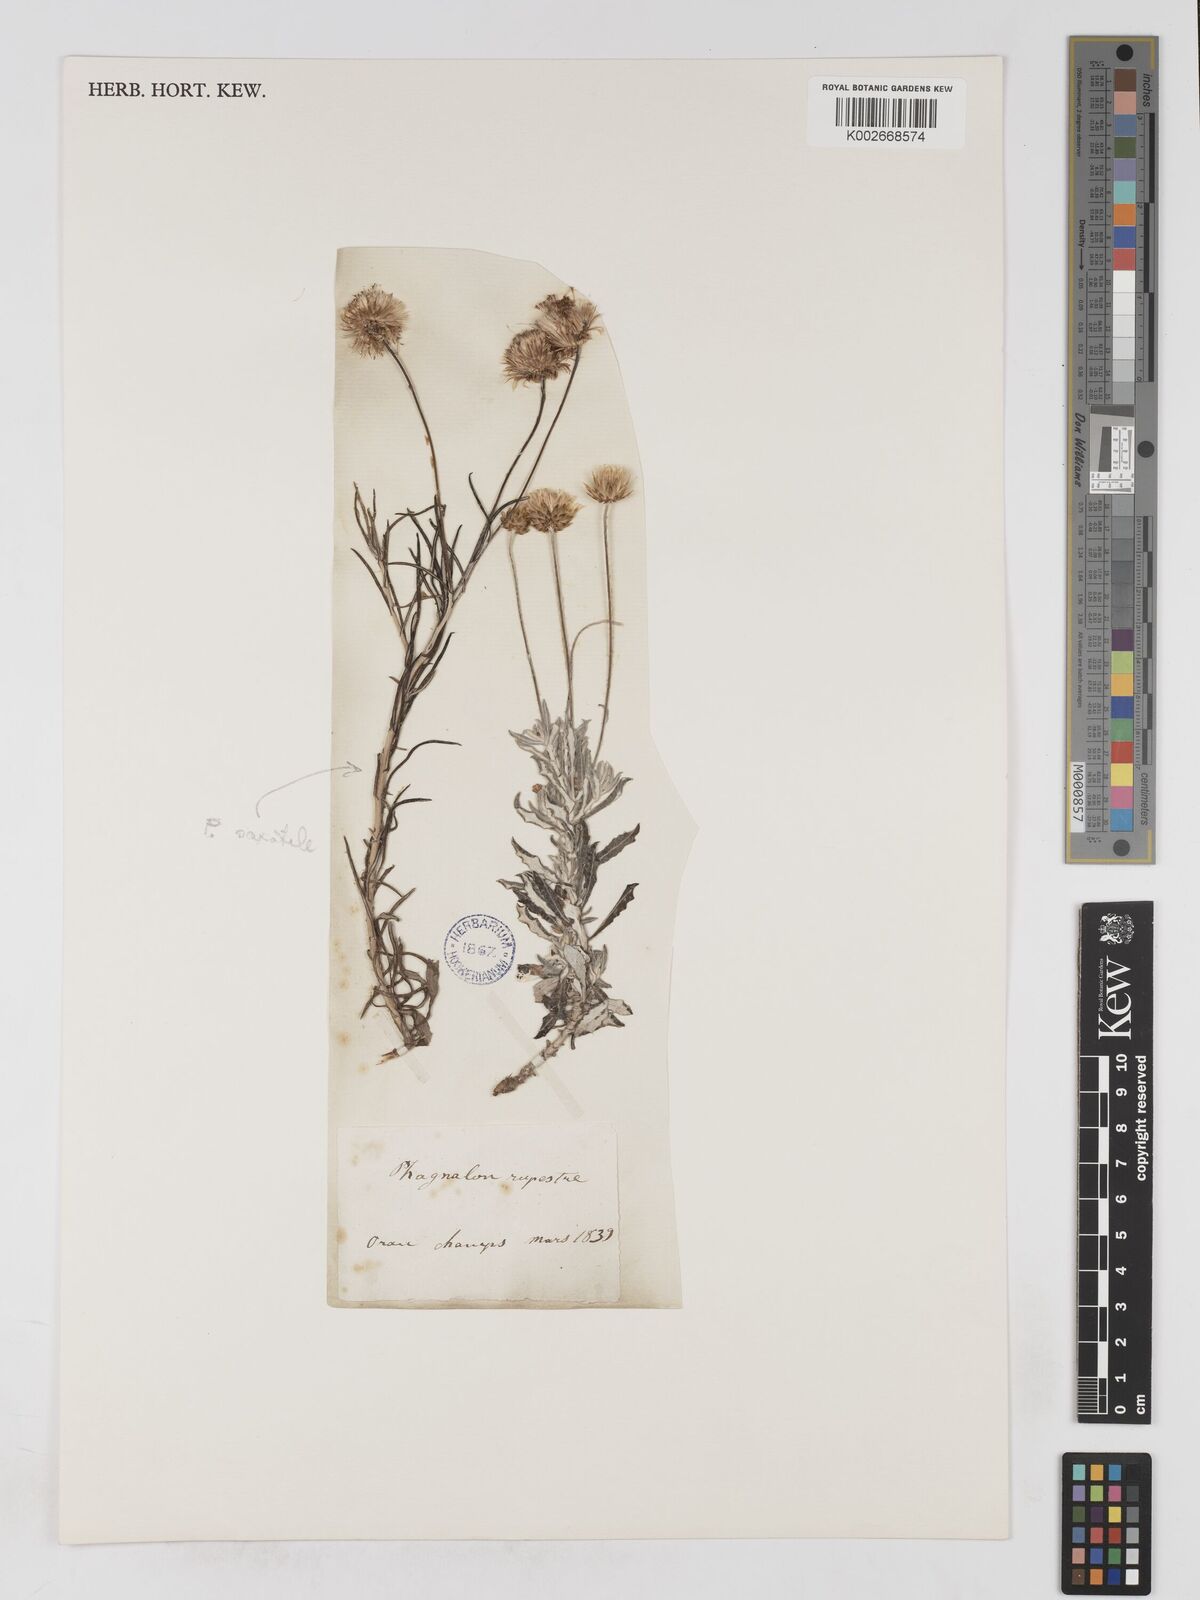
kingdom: Plantae
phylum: Tracheophyta
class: Magnoliopsida
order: Asterales
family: Asteraceae
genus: Phagnalon
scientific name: Phagnalon rupestre
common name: Rock phagnalon
